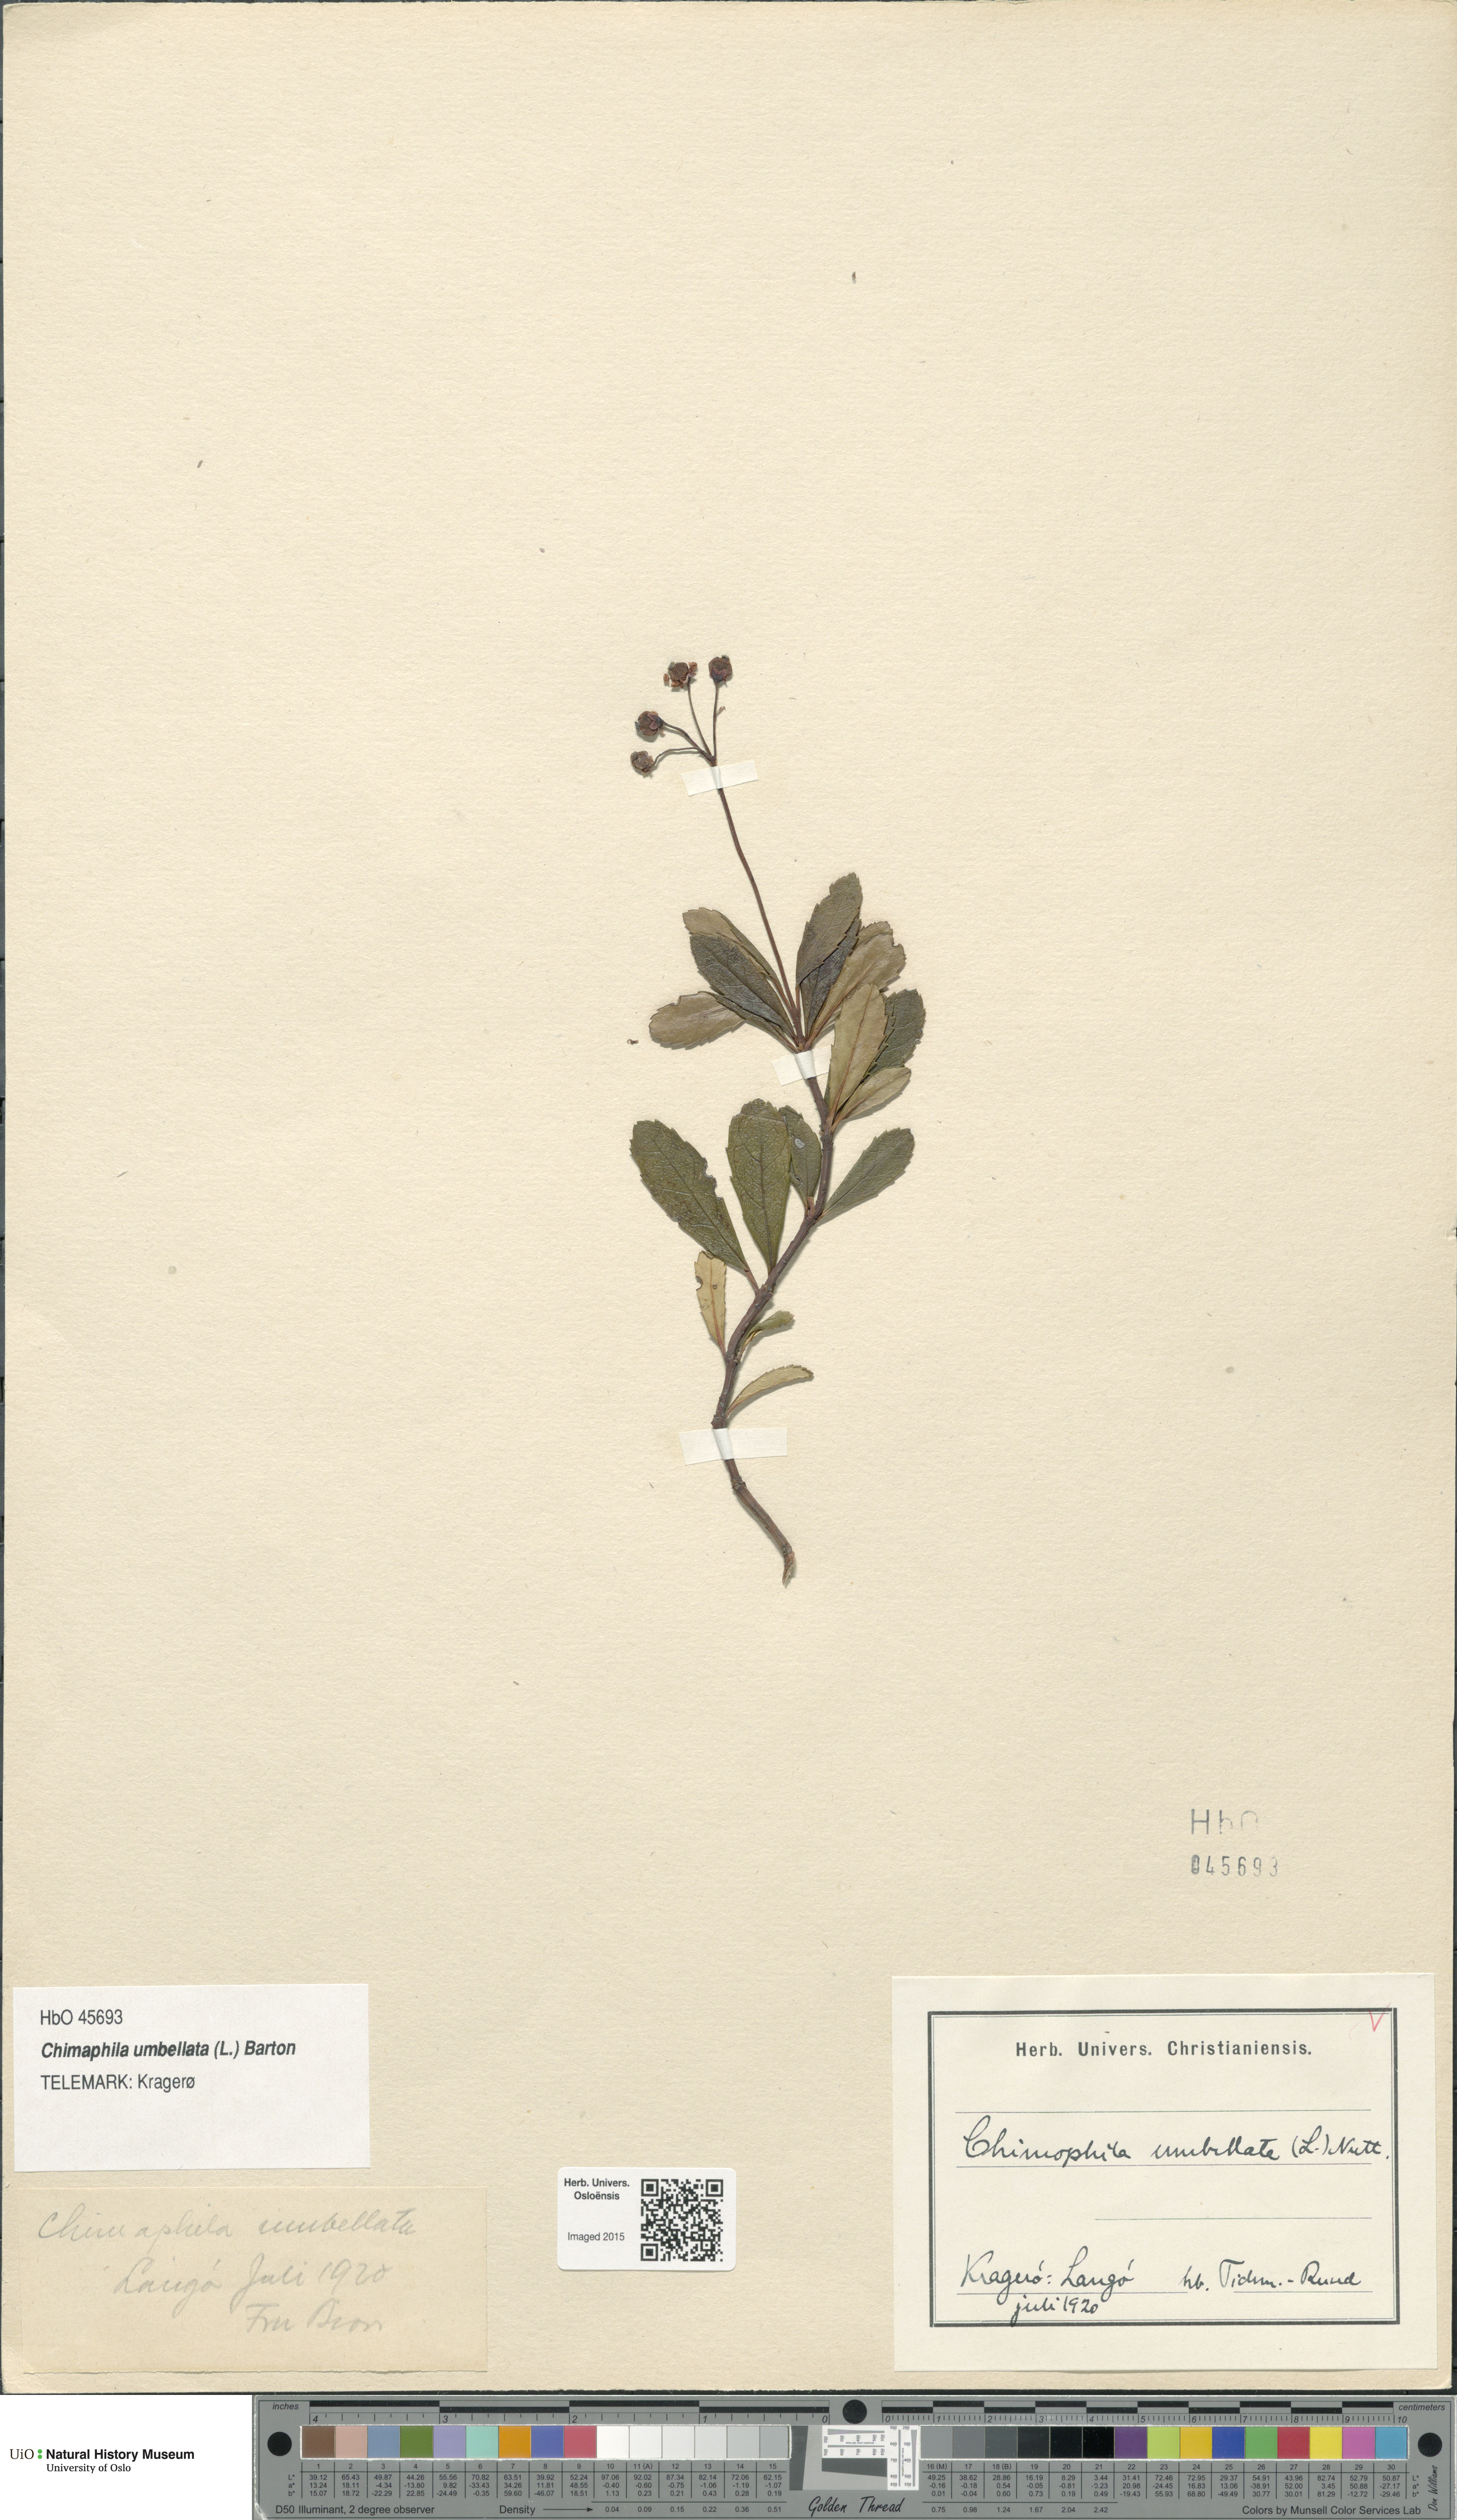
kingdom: Plantae
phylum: Tracheophyta
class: Magnoliopsida
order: Ericales
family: Ericaceae
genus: Chimaphila
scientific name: Chimaphila umbellata
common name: Pipsissewa
